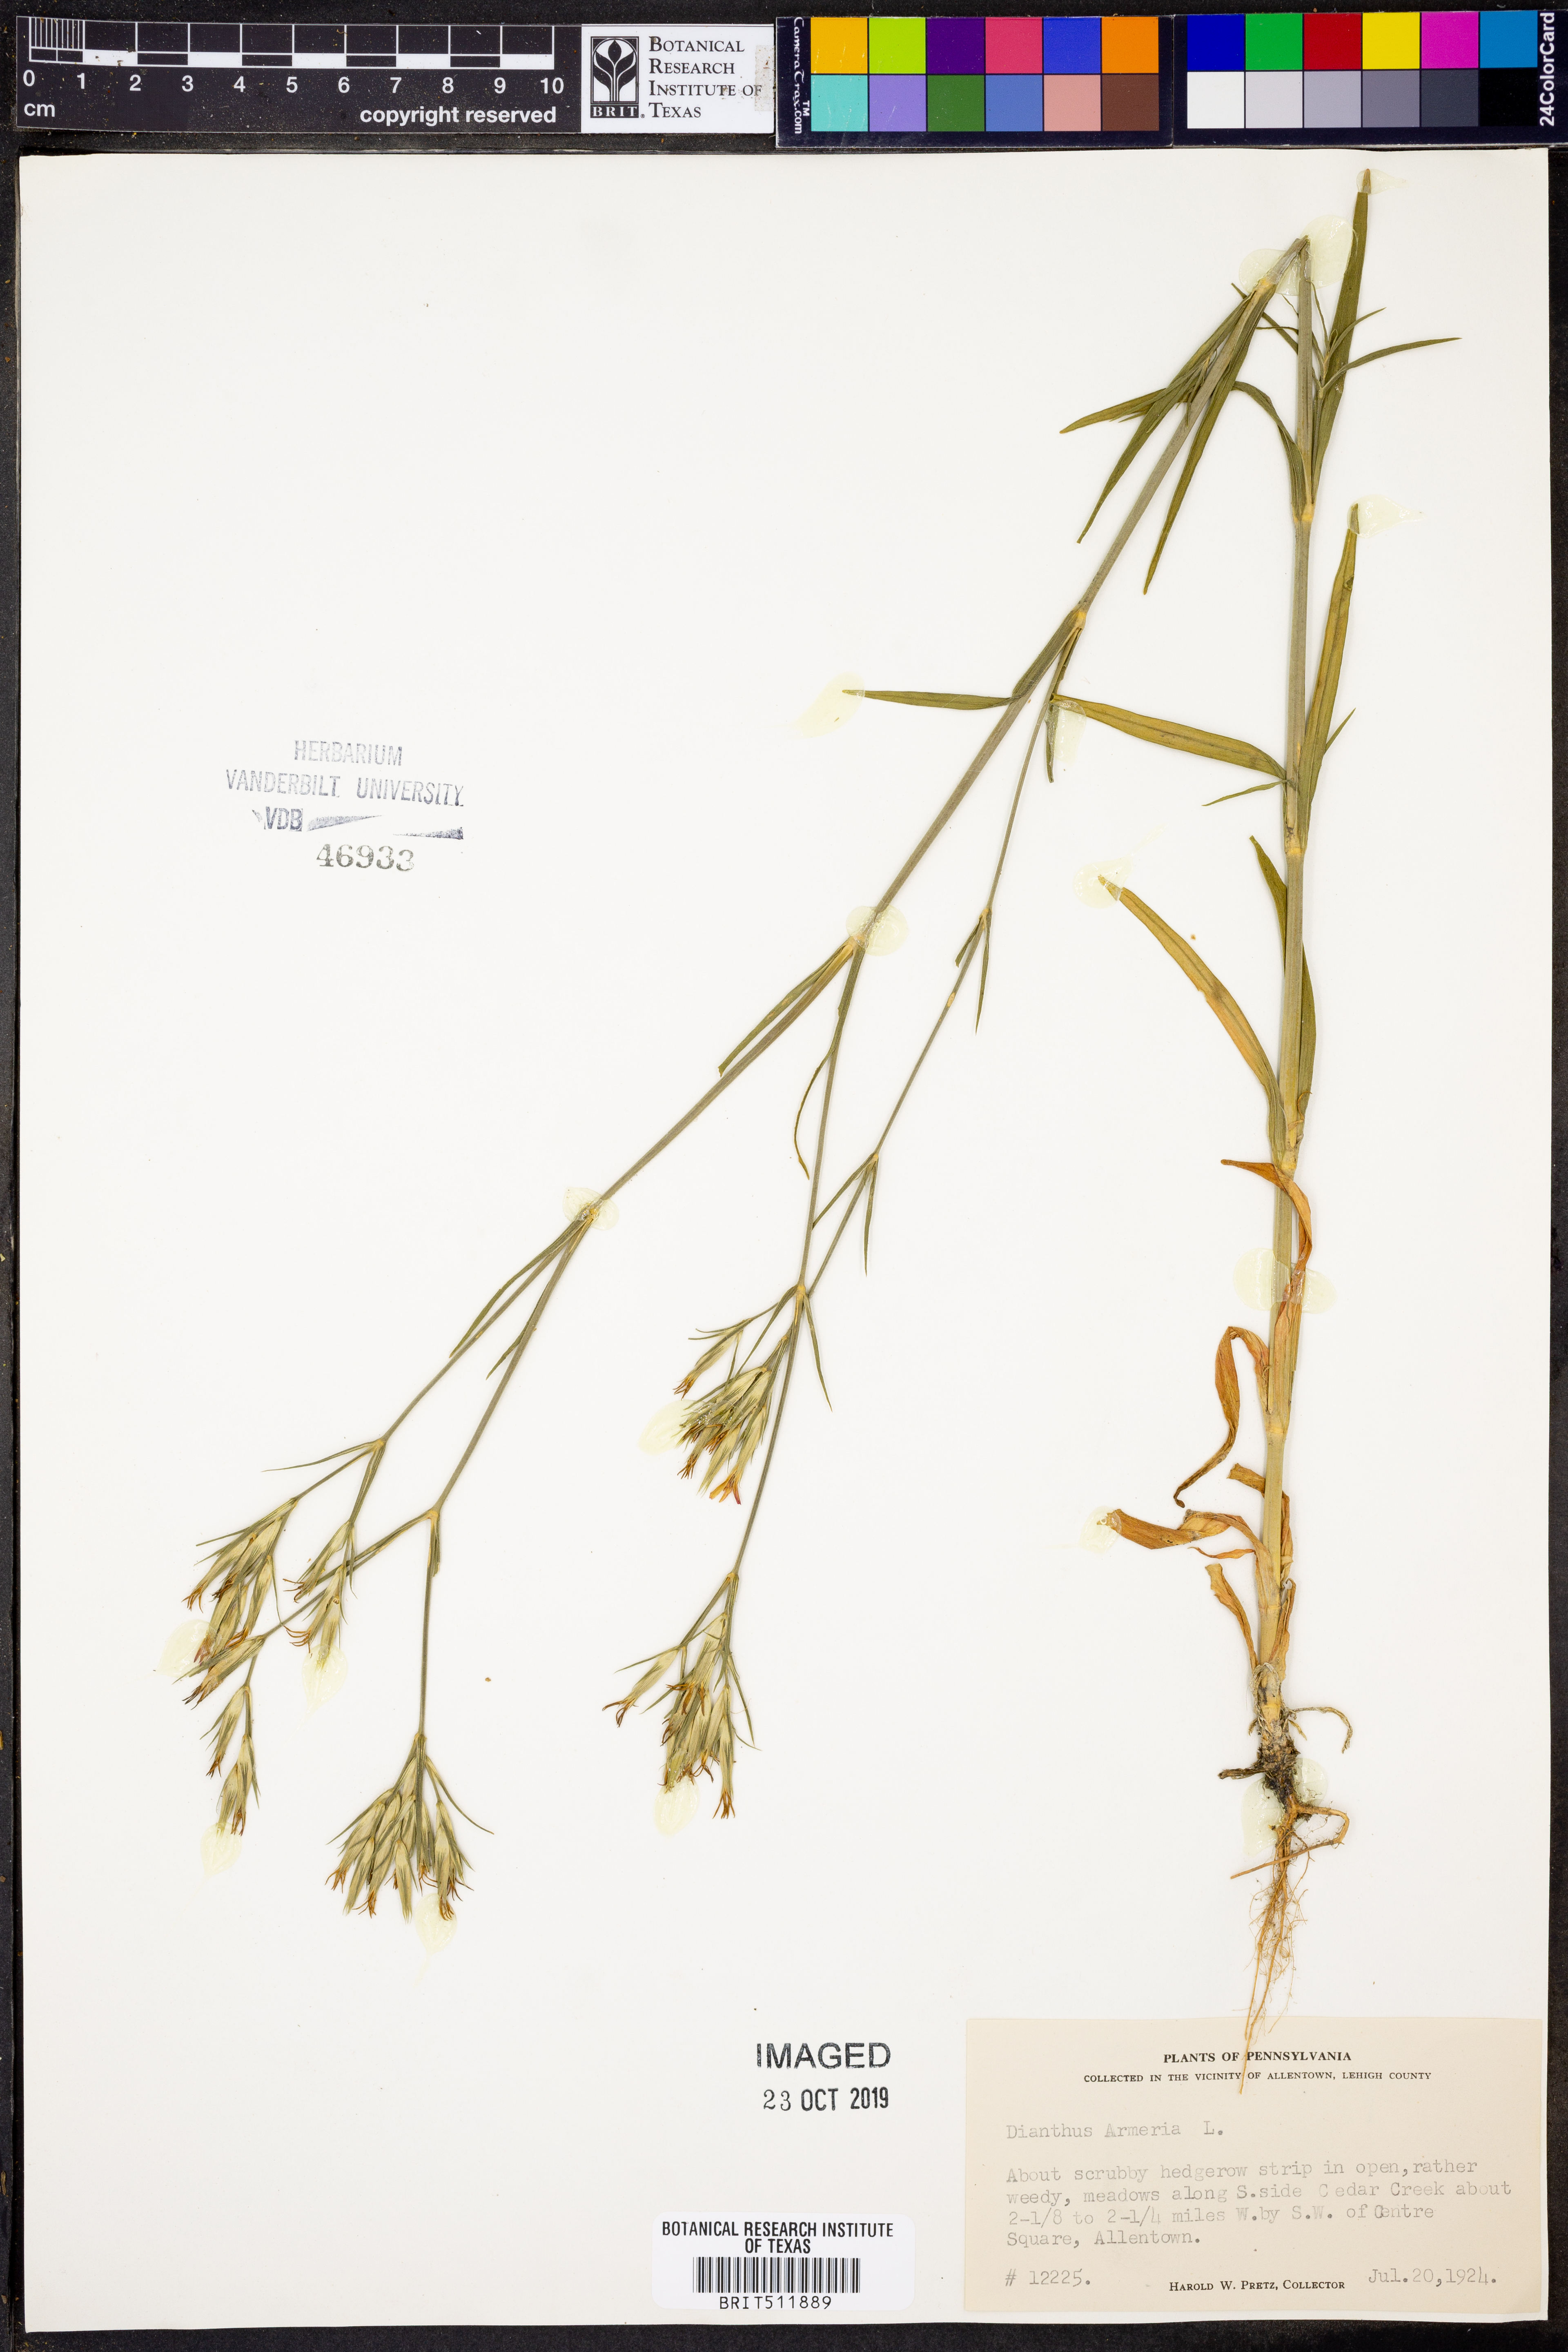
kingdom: Plantae
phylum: Tracheophyta
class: Magnoliopsida
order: Caryophyllales
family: Caryophyllaceae
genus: Dianthus
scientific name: Dianthus armeria
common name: Deptford pink
